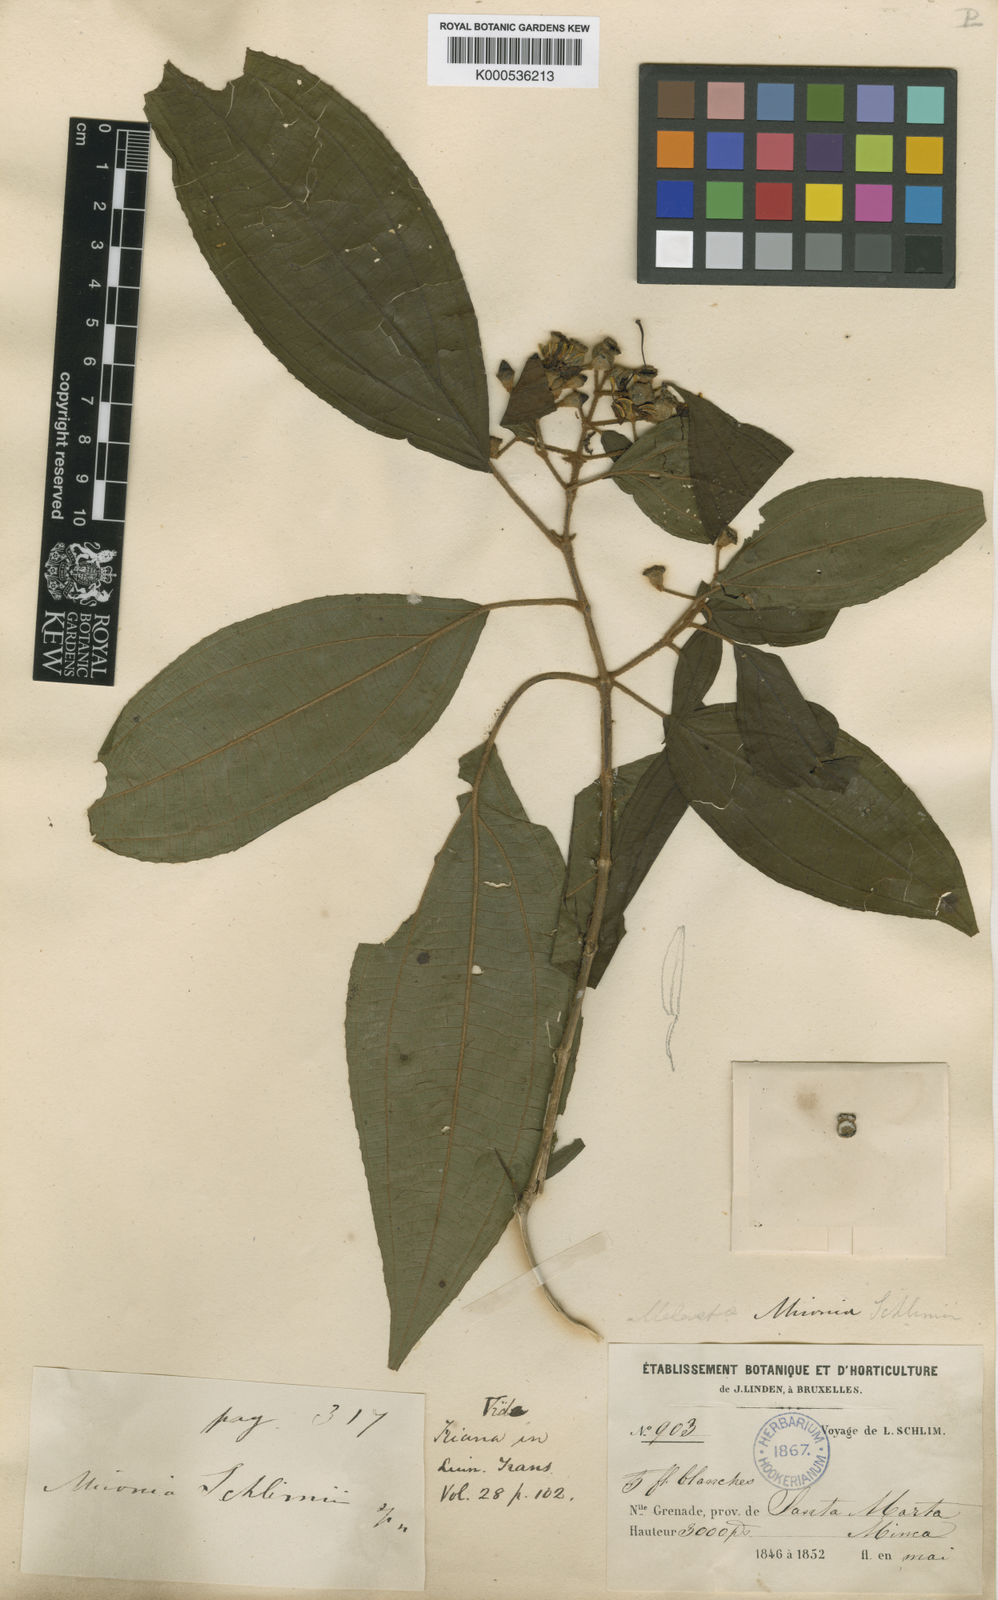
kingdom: Plantae
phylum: Tracheophyta
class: Magnoliopsida
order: Myrtales
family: Melastomataceae
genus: Miconia
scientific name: Miconia schlimii
